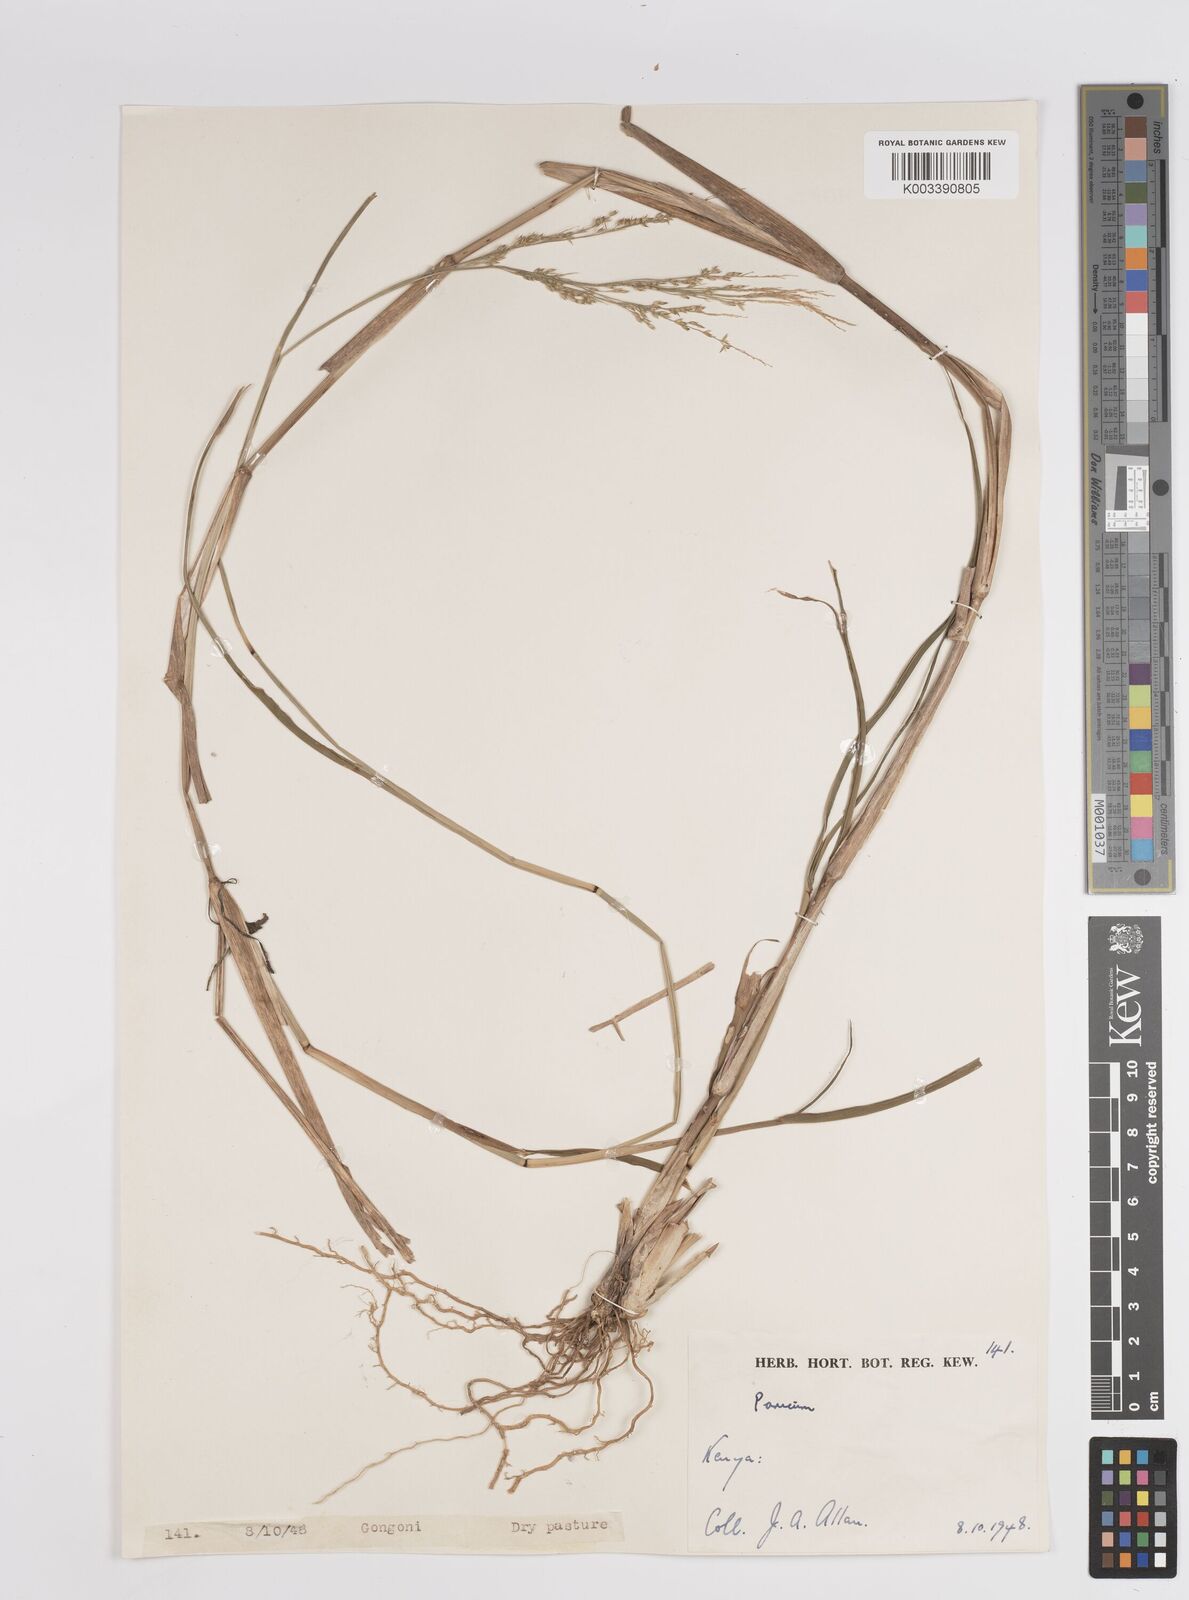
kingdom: Plantae
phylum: Tracheophyta
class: Liliopsida
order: Poales
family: Poaceae
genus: Panicum
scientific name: Panicum coloratum
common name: Kleingrass
